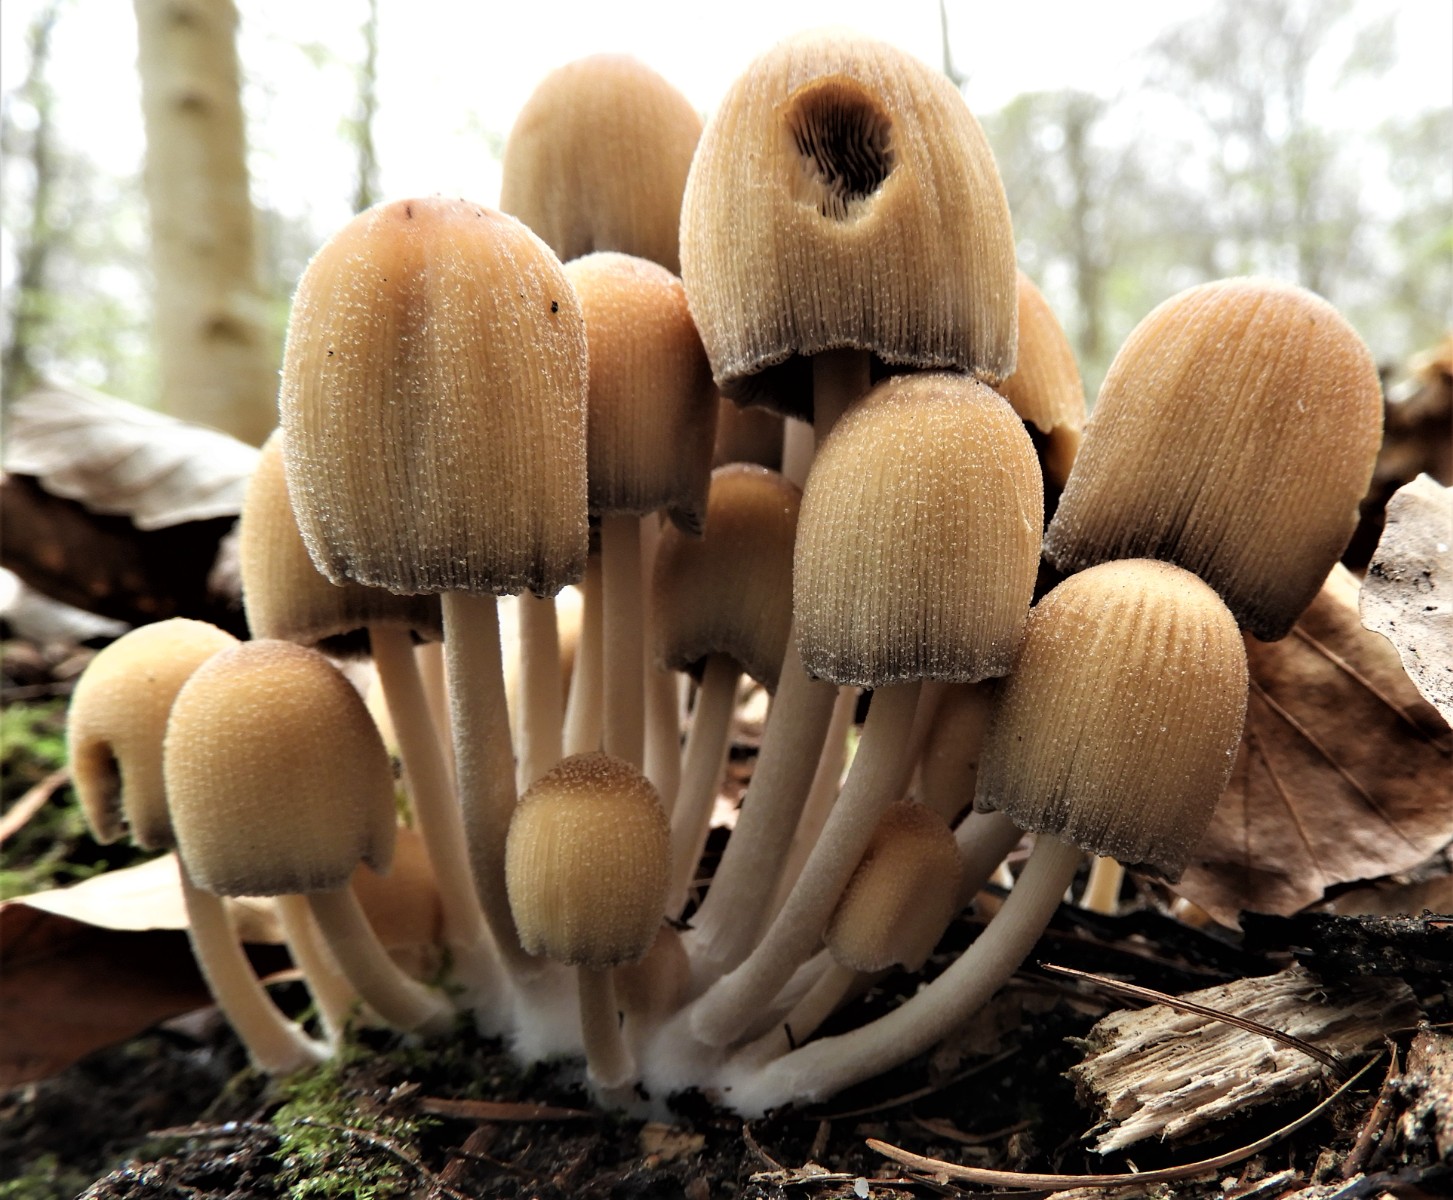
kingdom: Fungi
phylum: Basidiomycota
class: Agaricomycetes
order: Agaricales
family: Psathyrellaceae
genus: Coprinellus
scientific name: Coprinellus micaceus
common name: glimmer-blækhat
